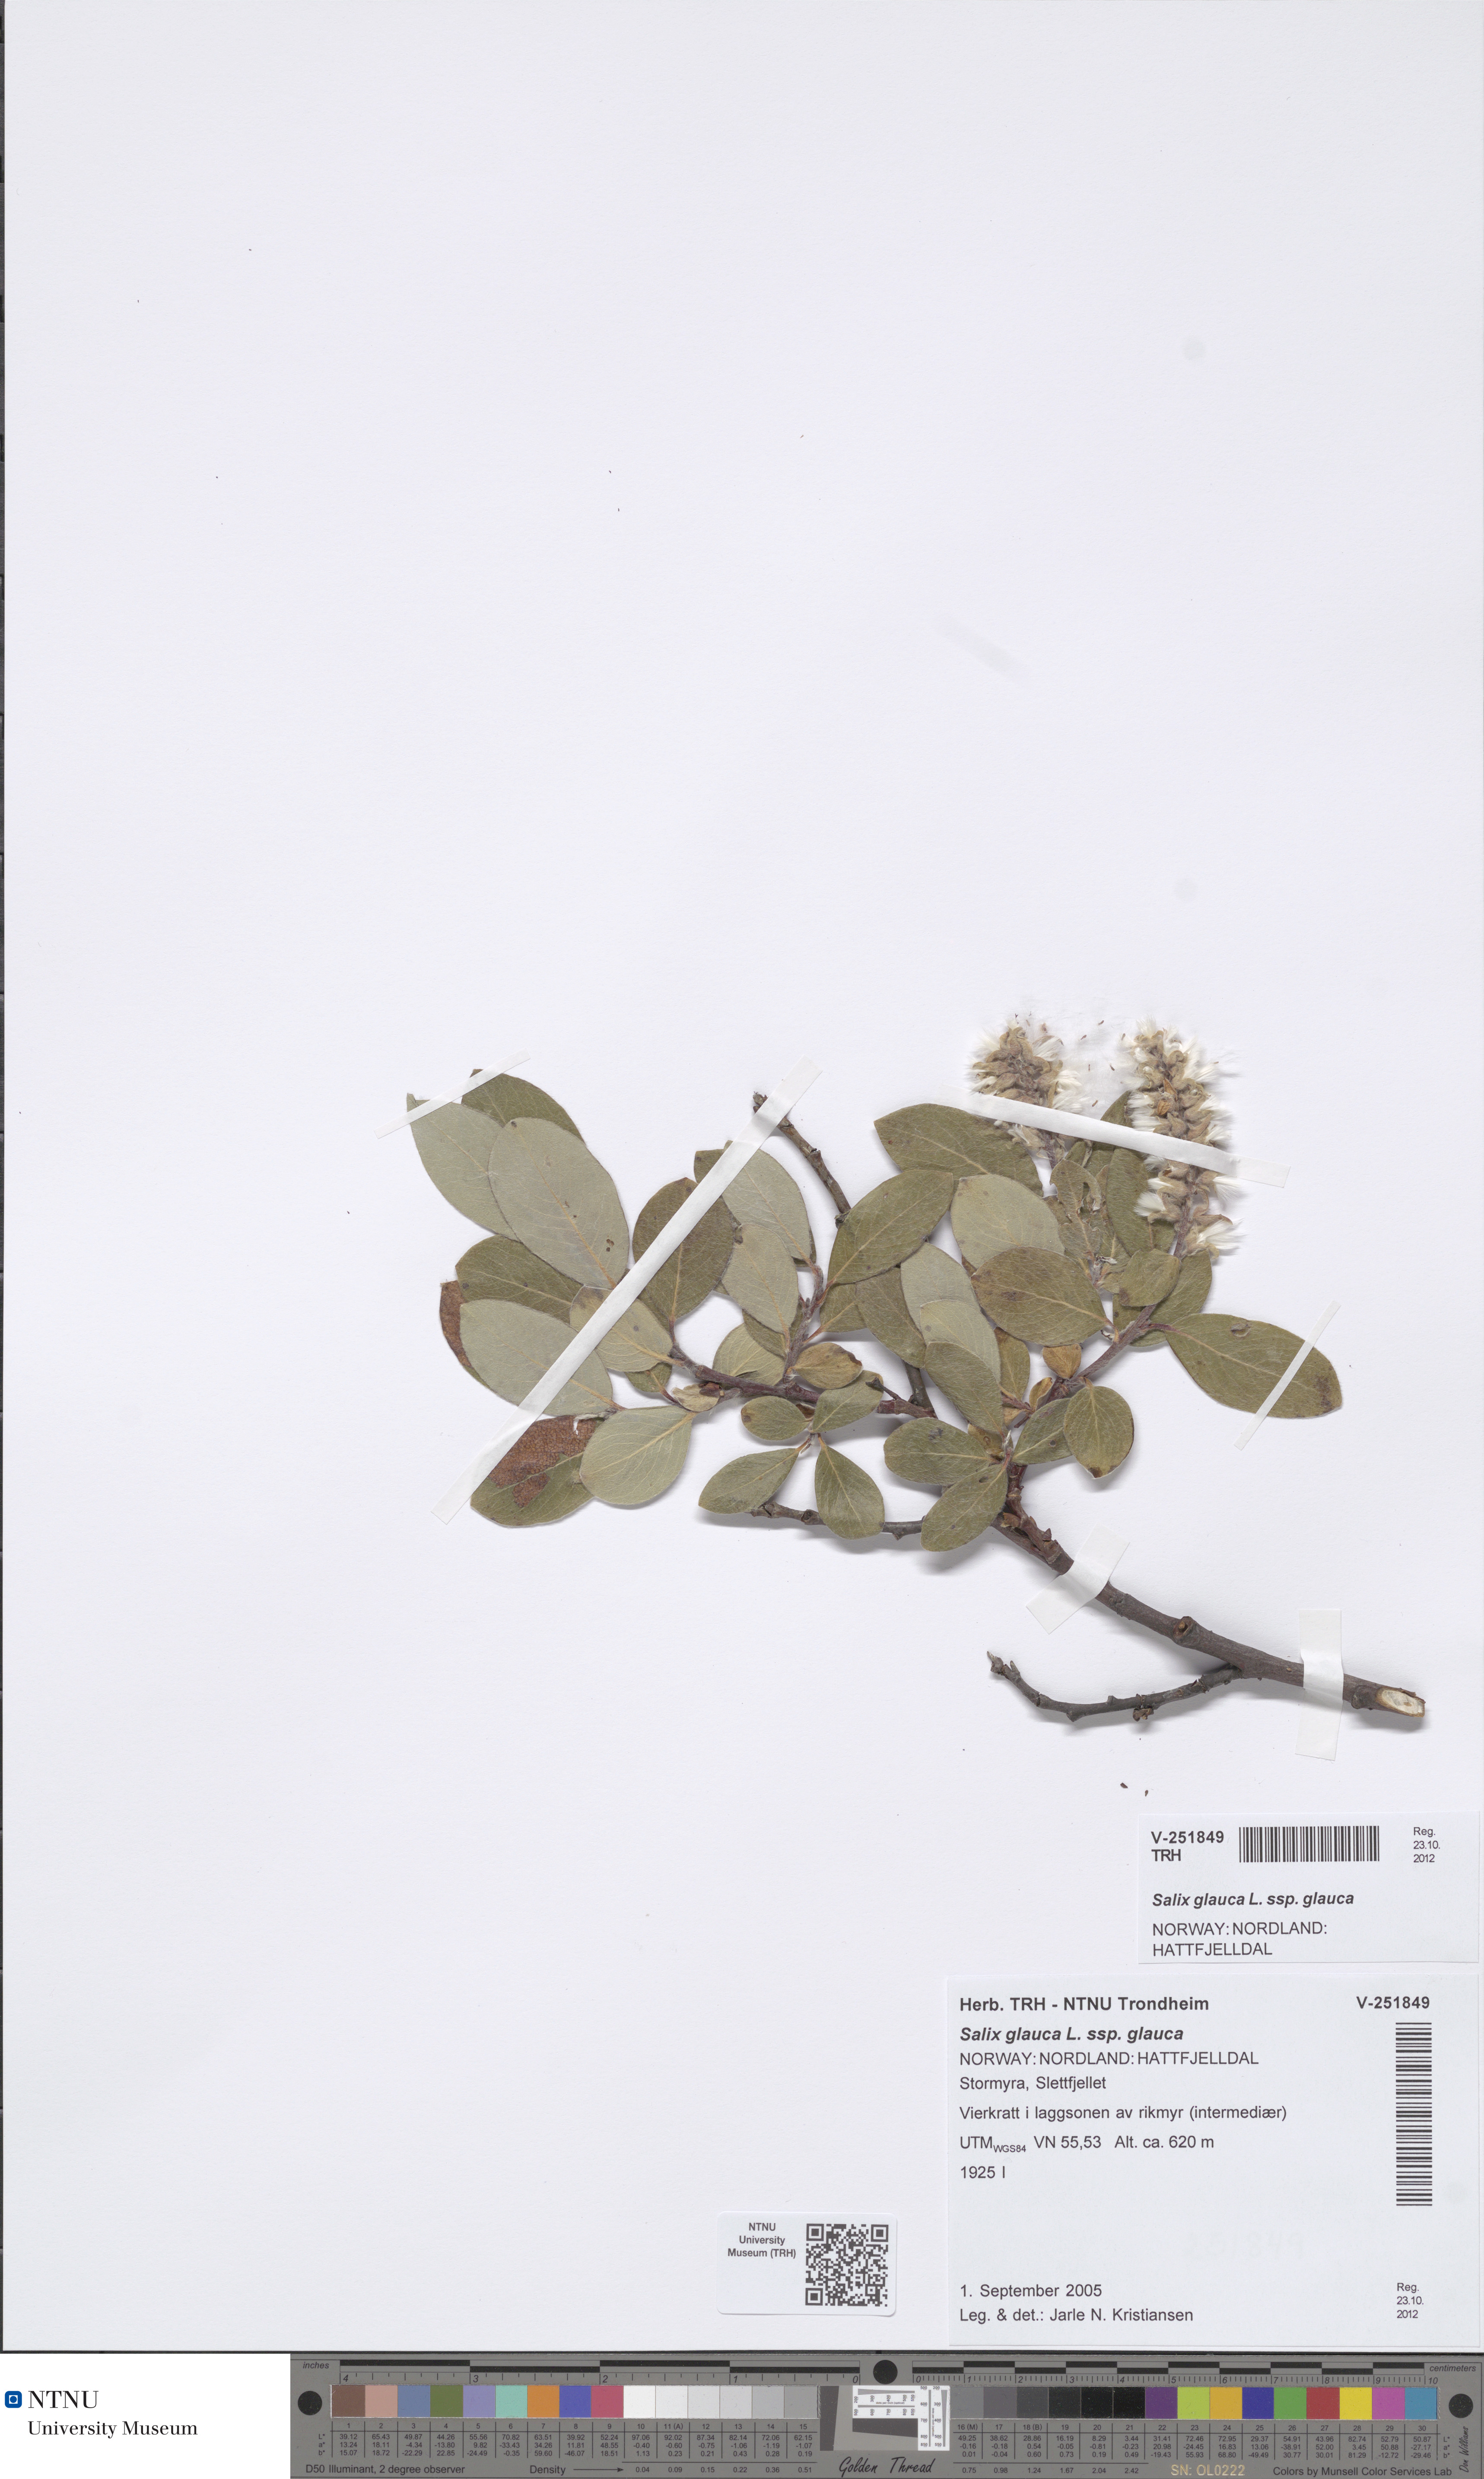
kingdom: Plantae
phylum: Tracheophyta
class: Magnoliopsida
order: Malpighiales
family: Salicaceae
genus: Salix
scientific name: Salix glauca
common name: Glaucous willow
